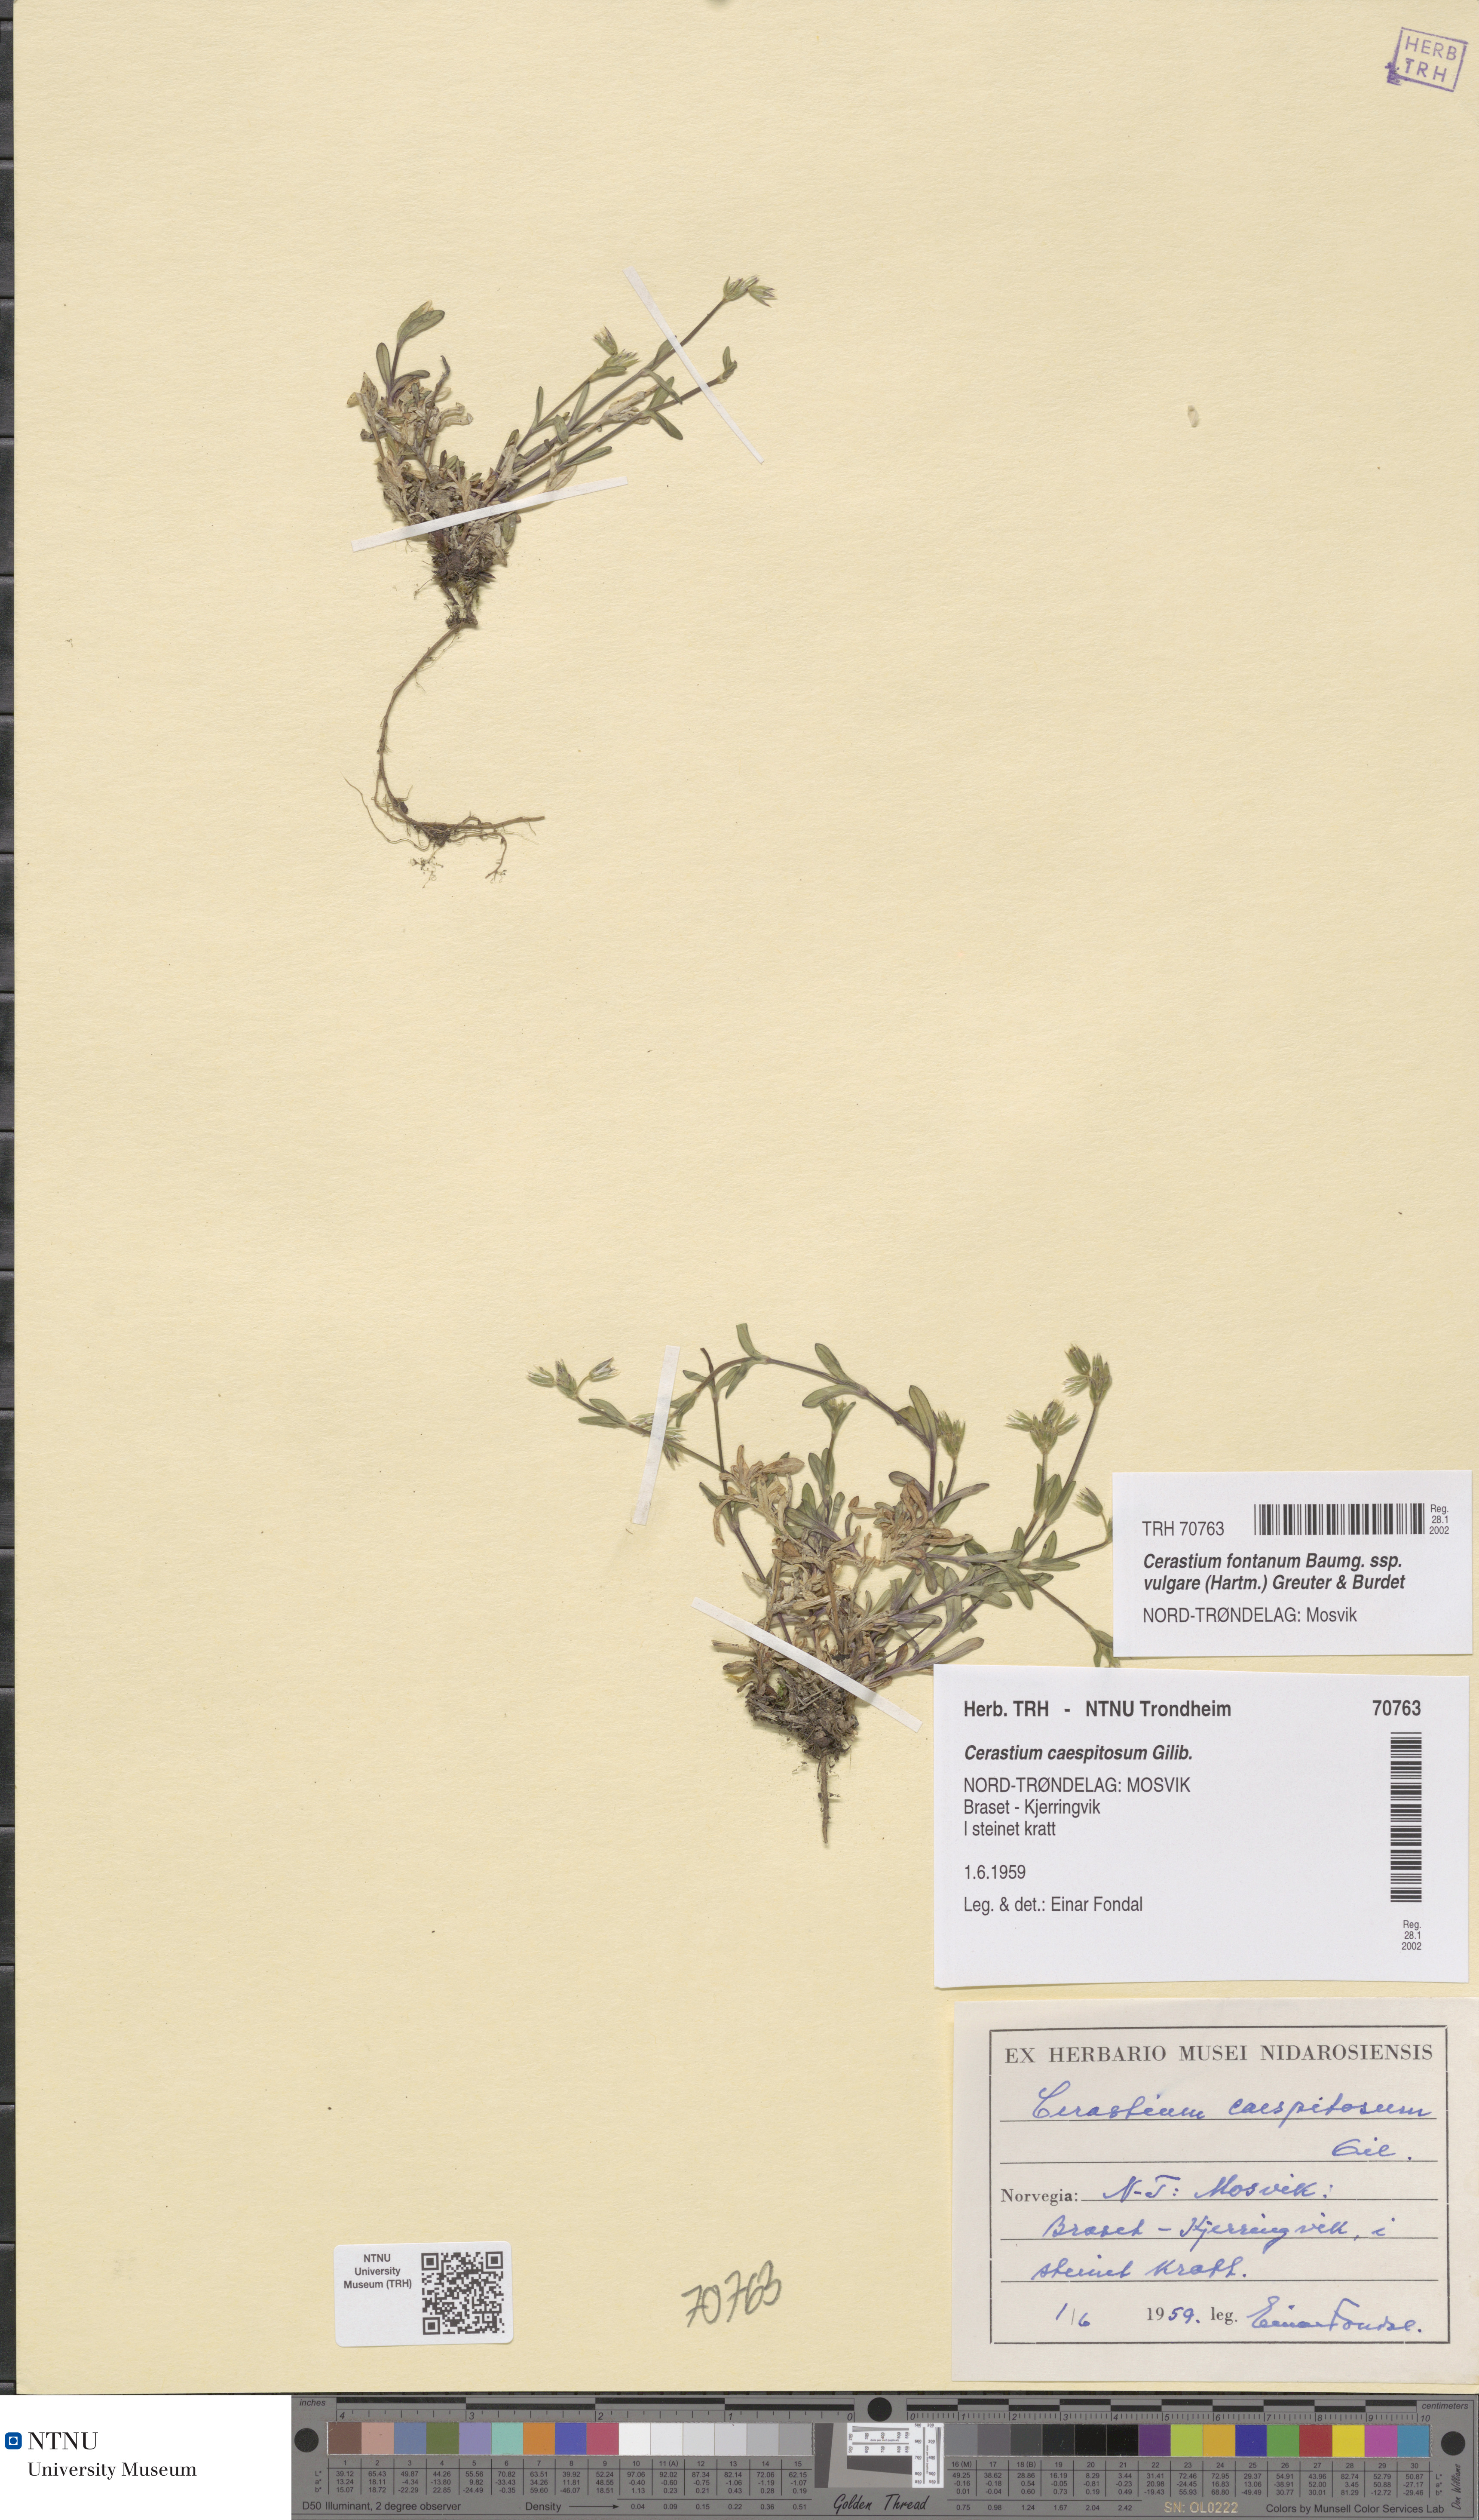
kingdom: Plantae
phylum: Tracheophyta
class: Magnoliopsida
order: Caryophyllales
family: Caryophyllaceae
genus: Cerastium
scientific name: Cerastium holosteoides
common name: Big chickweed
